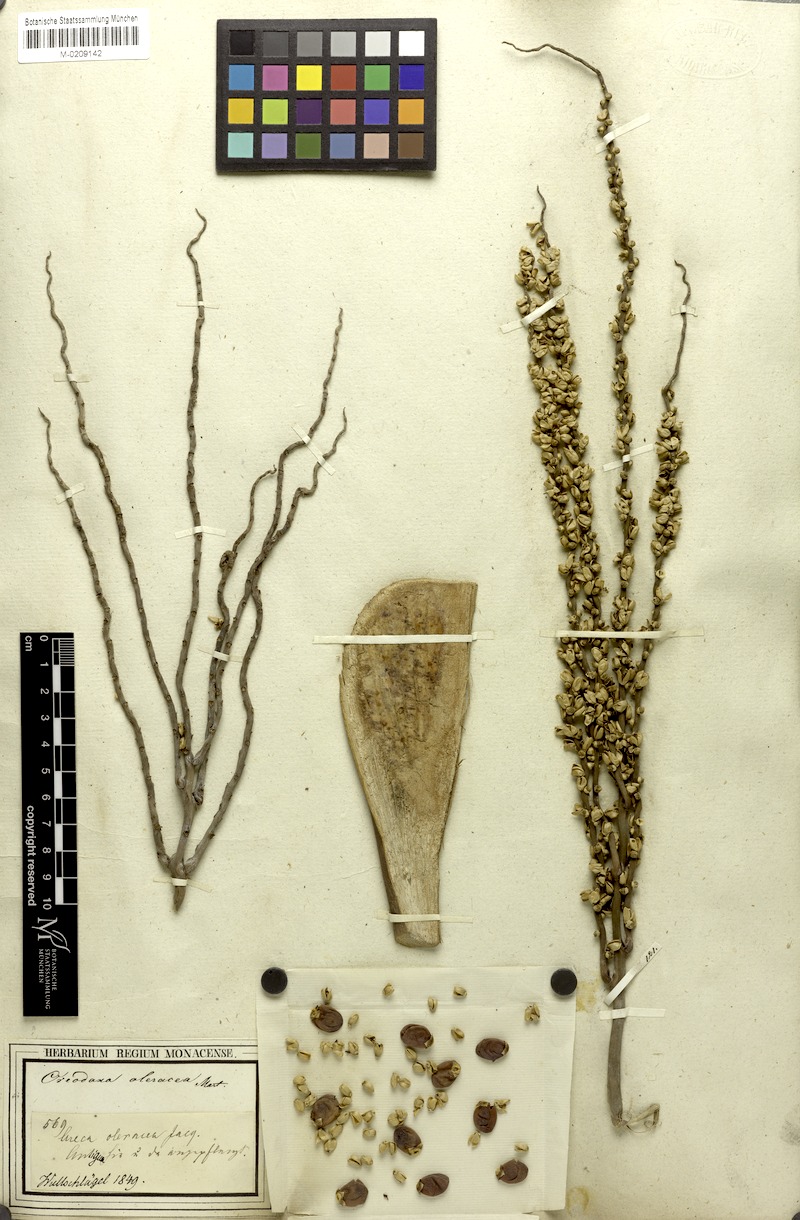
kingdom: Plantae
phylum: Tracheophyta
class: Liliopsida
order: Arecales
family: Arecaceae
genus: Roystonea
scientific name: Roystonea oleracea
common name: South american royal palm
